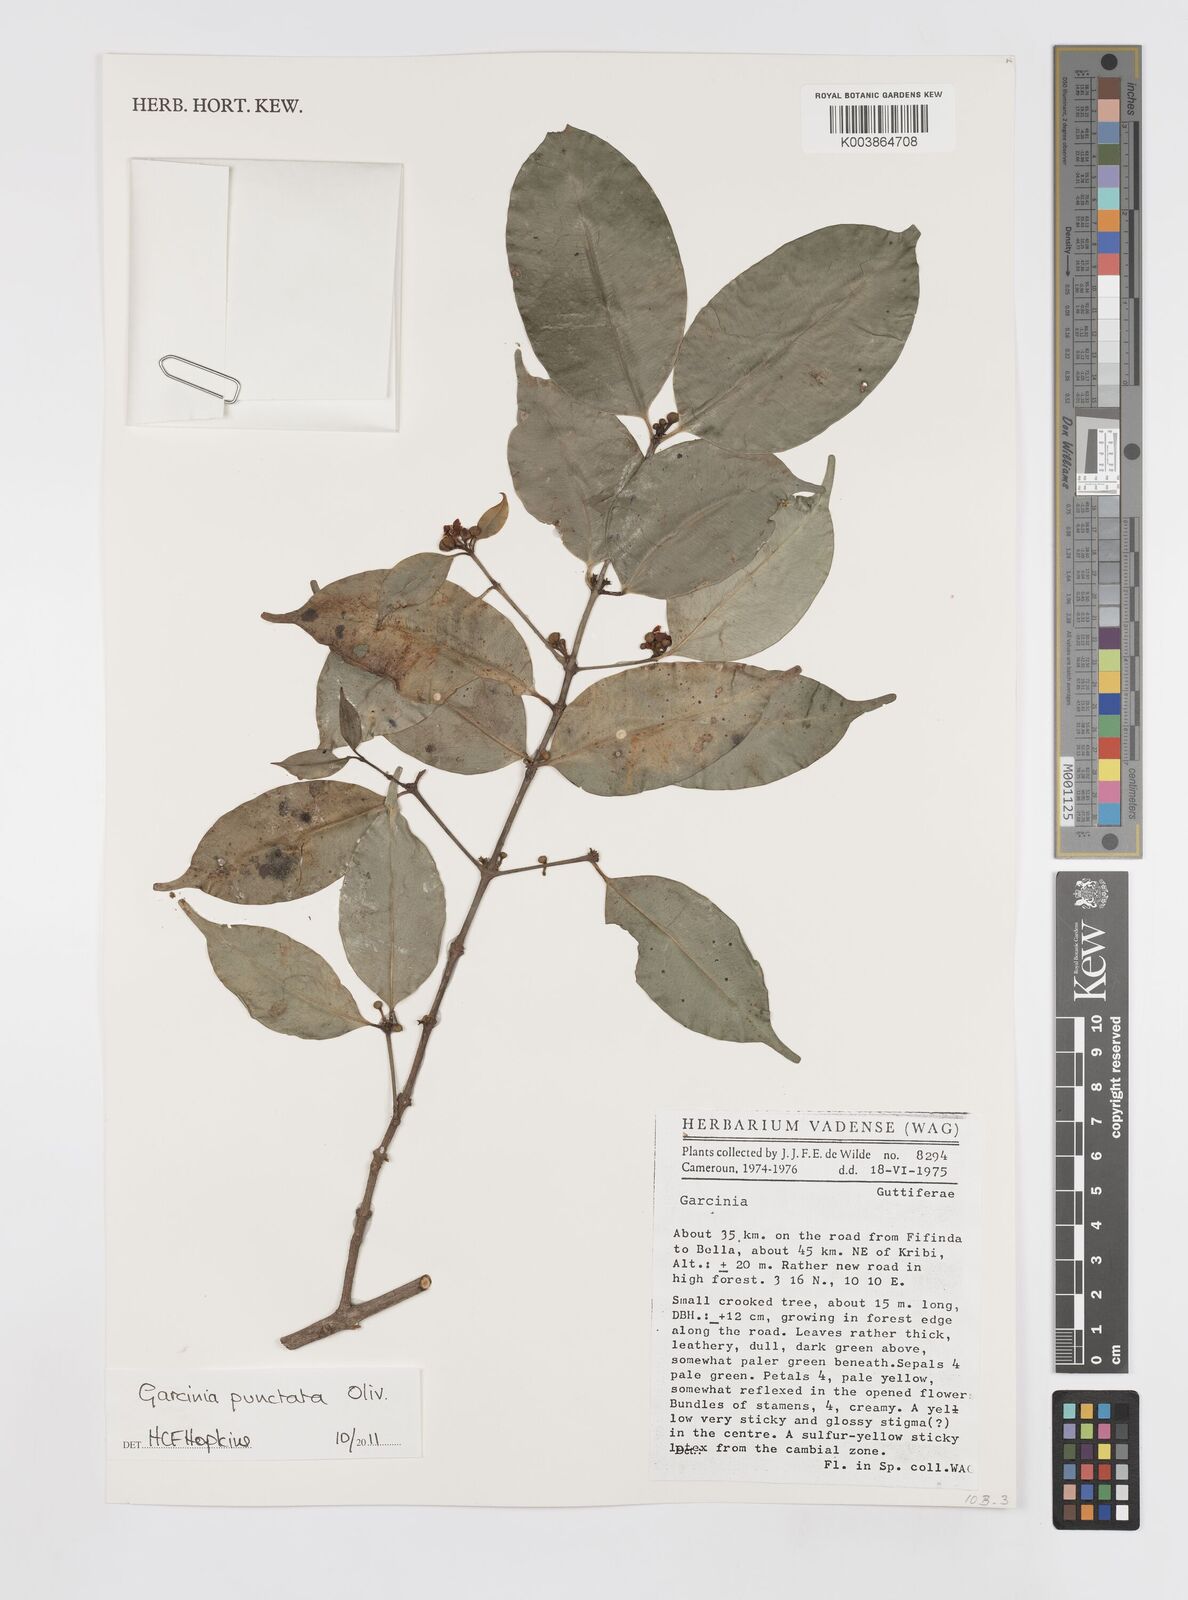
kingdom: Plantae
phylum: Tracheophyta
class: Magnoliopsida
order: Malpighiales
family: Clusiaceae
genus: Garcinia
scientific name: Garcinia punctata
